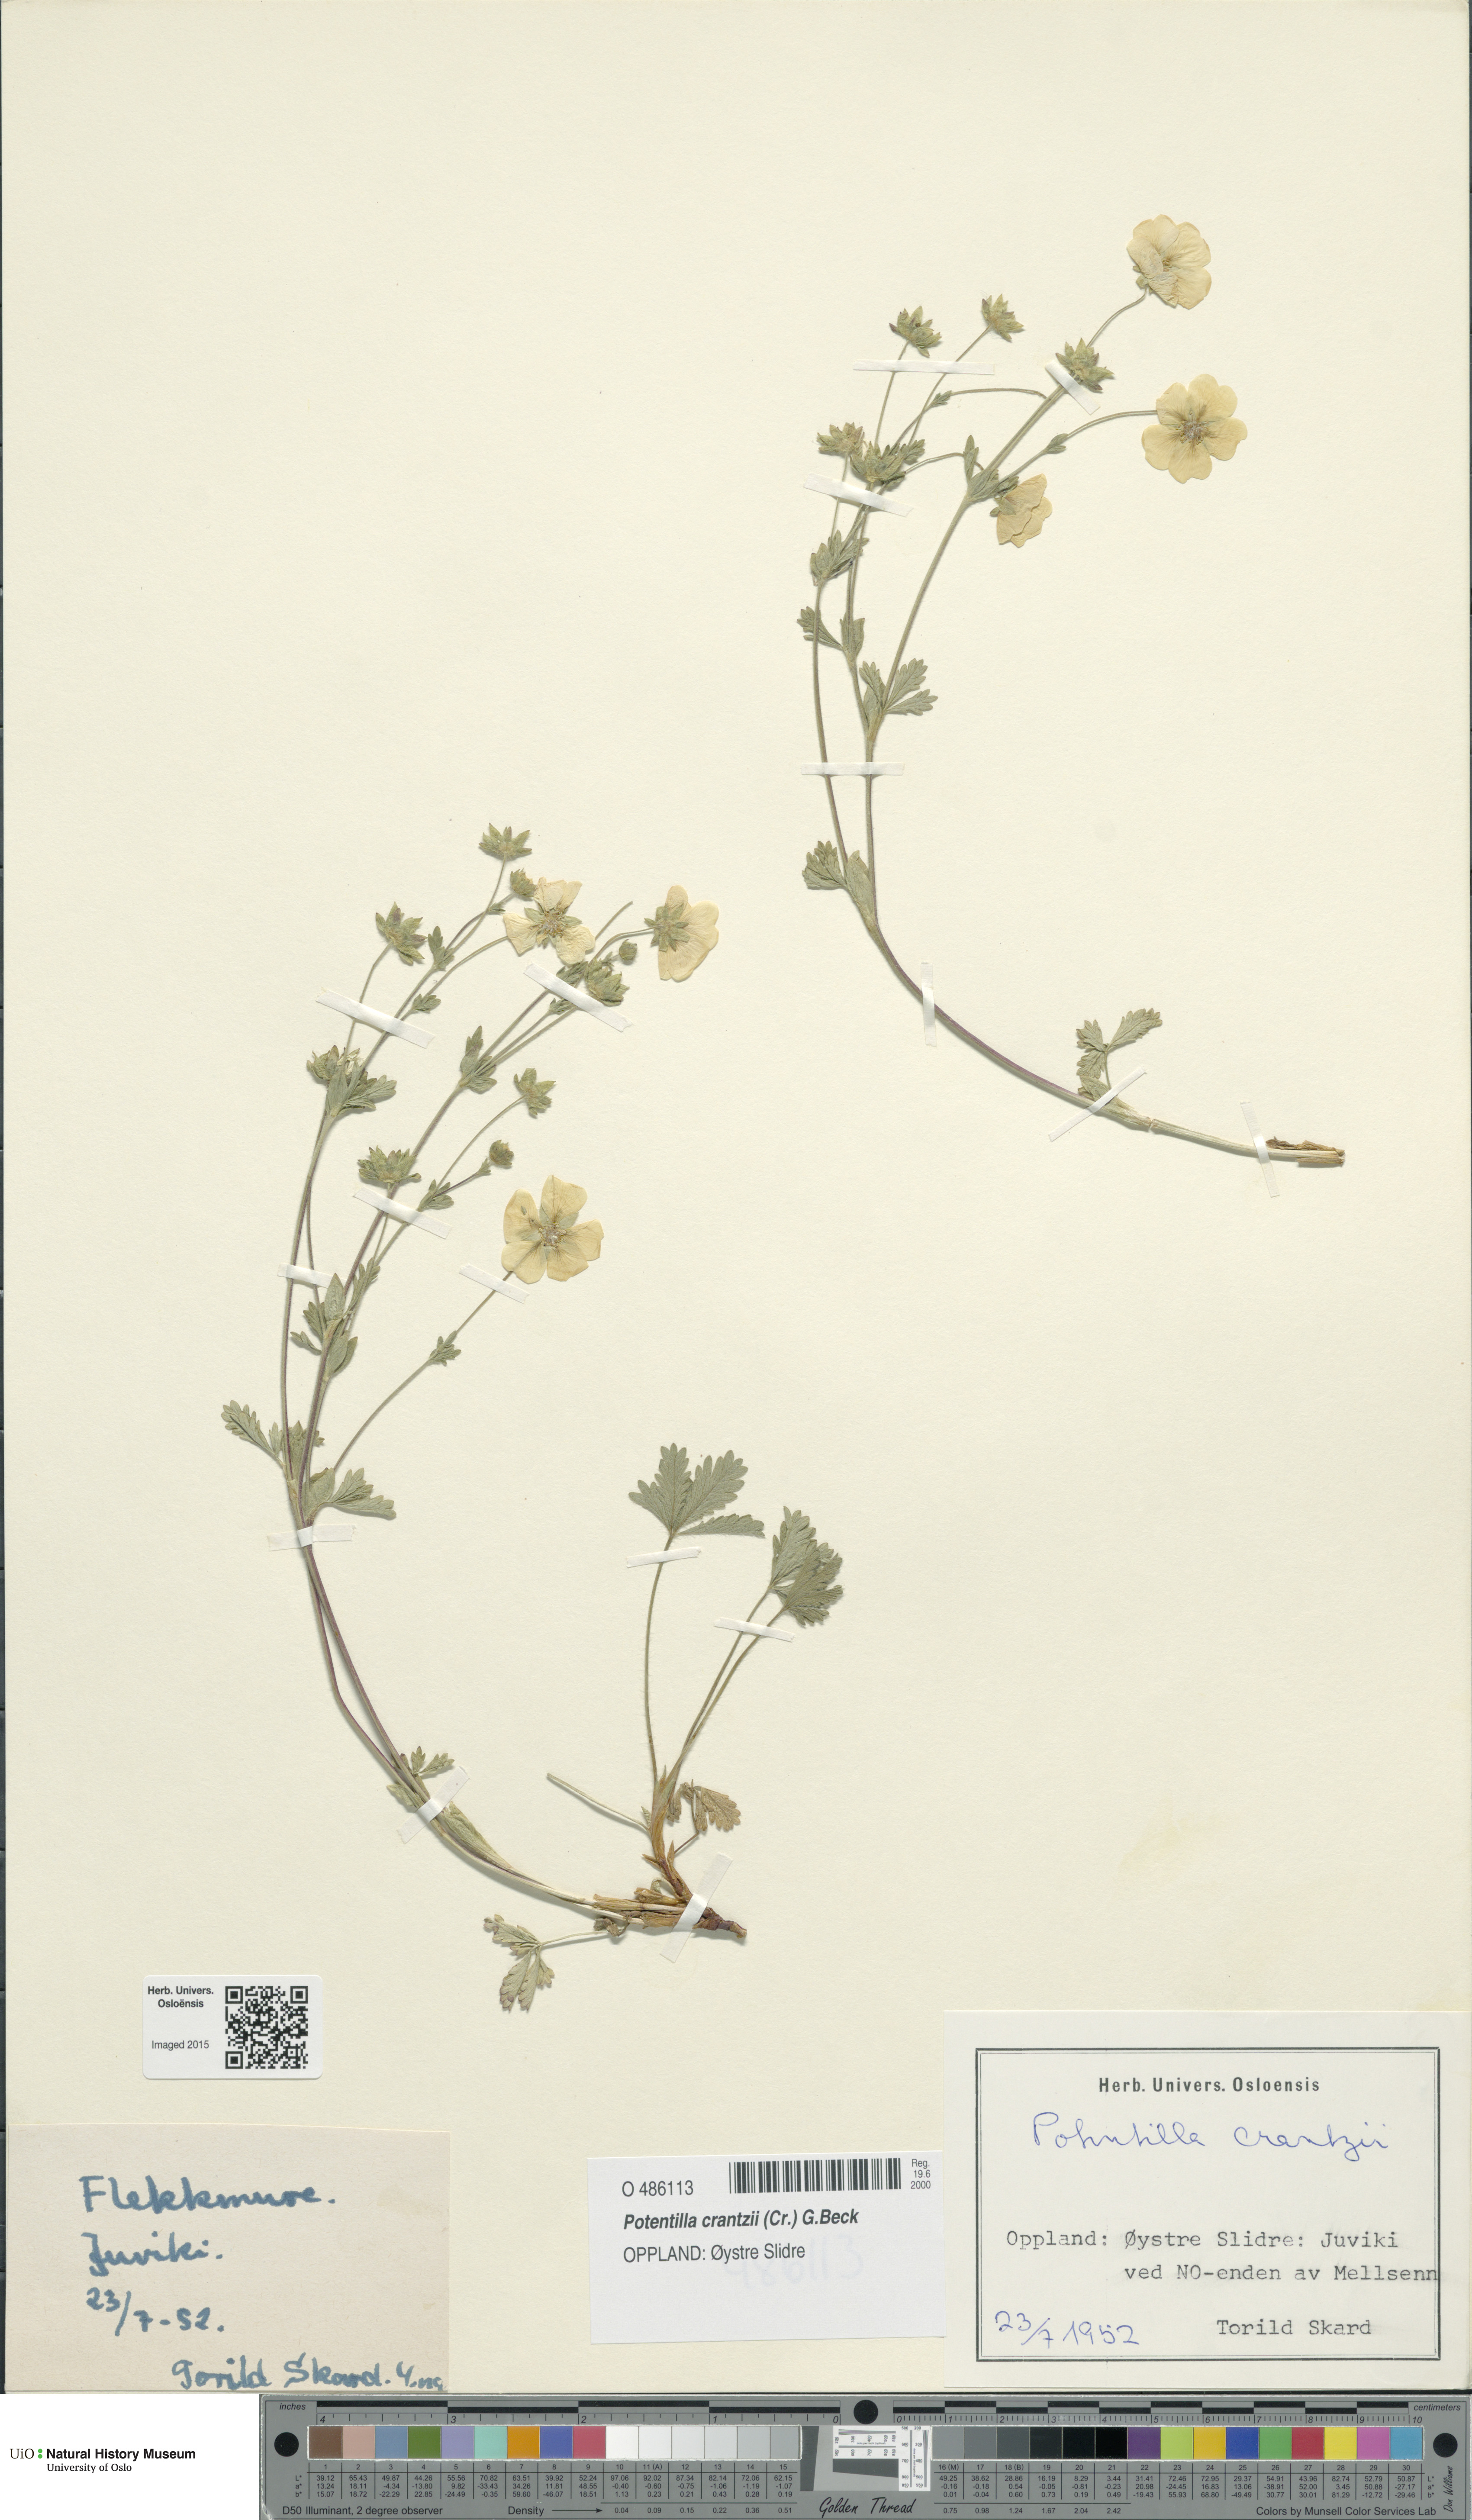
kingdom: Plantae
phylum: Tracheophyta
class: Magnoliopsida
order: Rosales
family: Rosaceae
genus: Potentilla
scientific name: Potentilla crantzii
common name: Alpine cinquefoil
